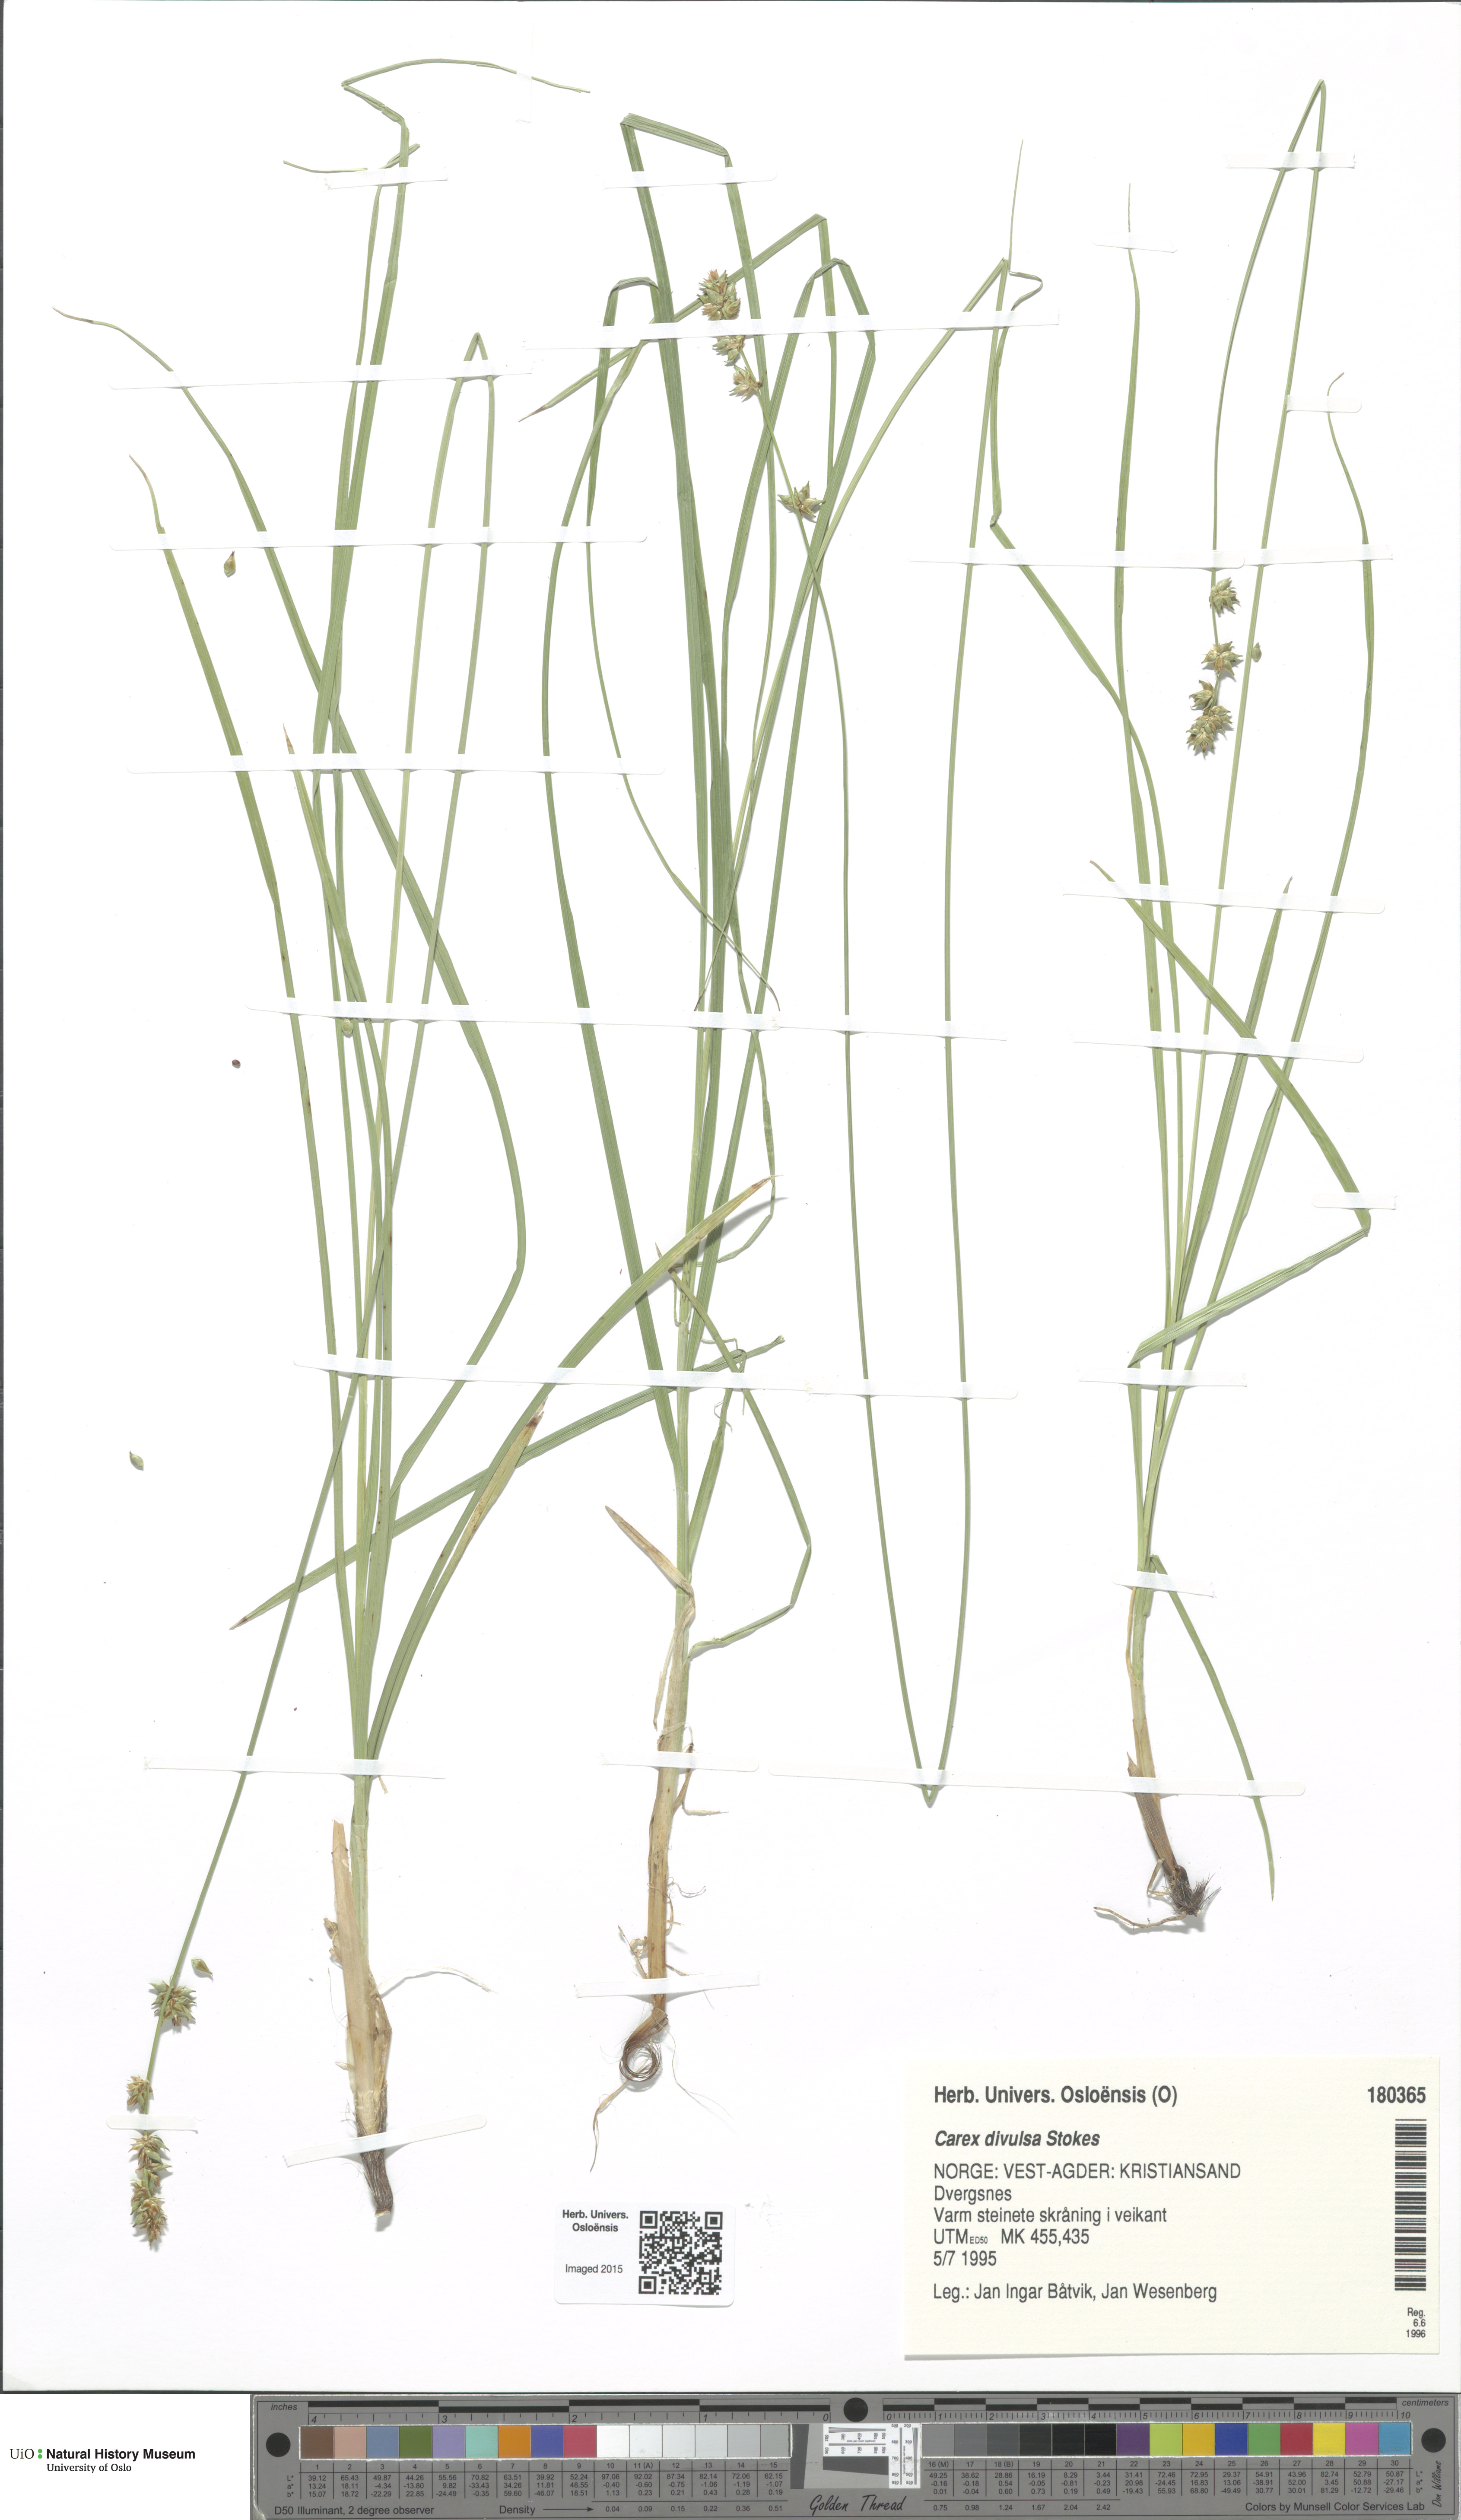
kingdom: Plantae
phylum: Tracheophyta
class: Liliopsida
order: Poales
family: Cyperaceae
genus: Carex
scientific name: Carex leersii
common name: Leers' sedge
